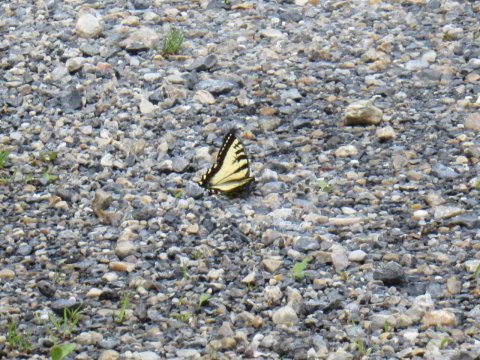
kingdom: Animalia
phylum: Arthropoda
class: Insecta
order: Lepidoptera
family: Papilionidae
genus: Pterourus
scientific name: Pterourus
